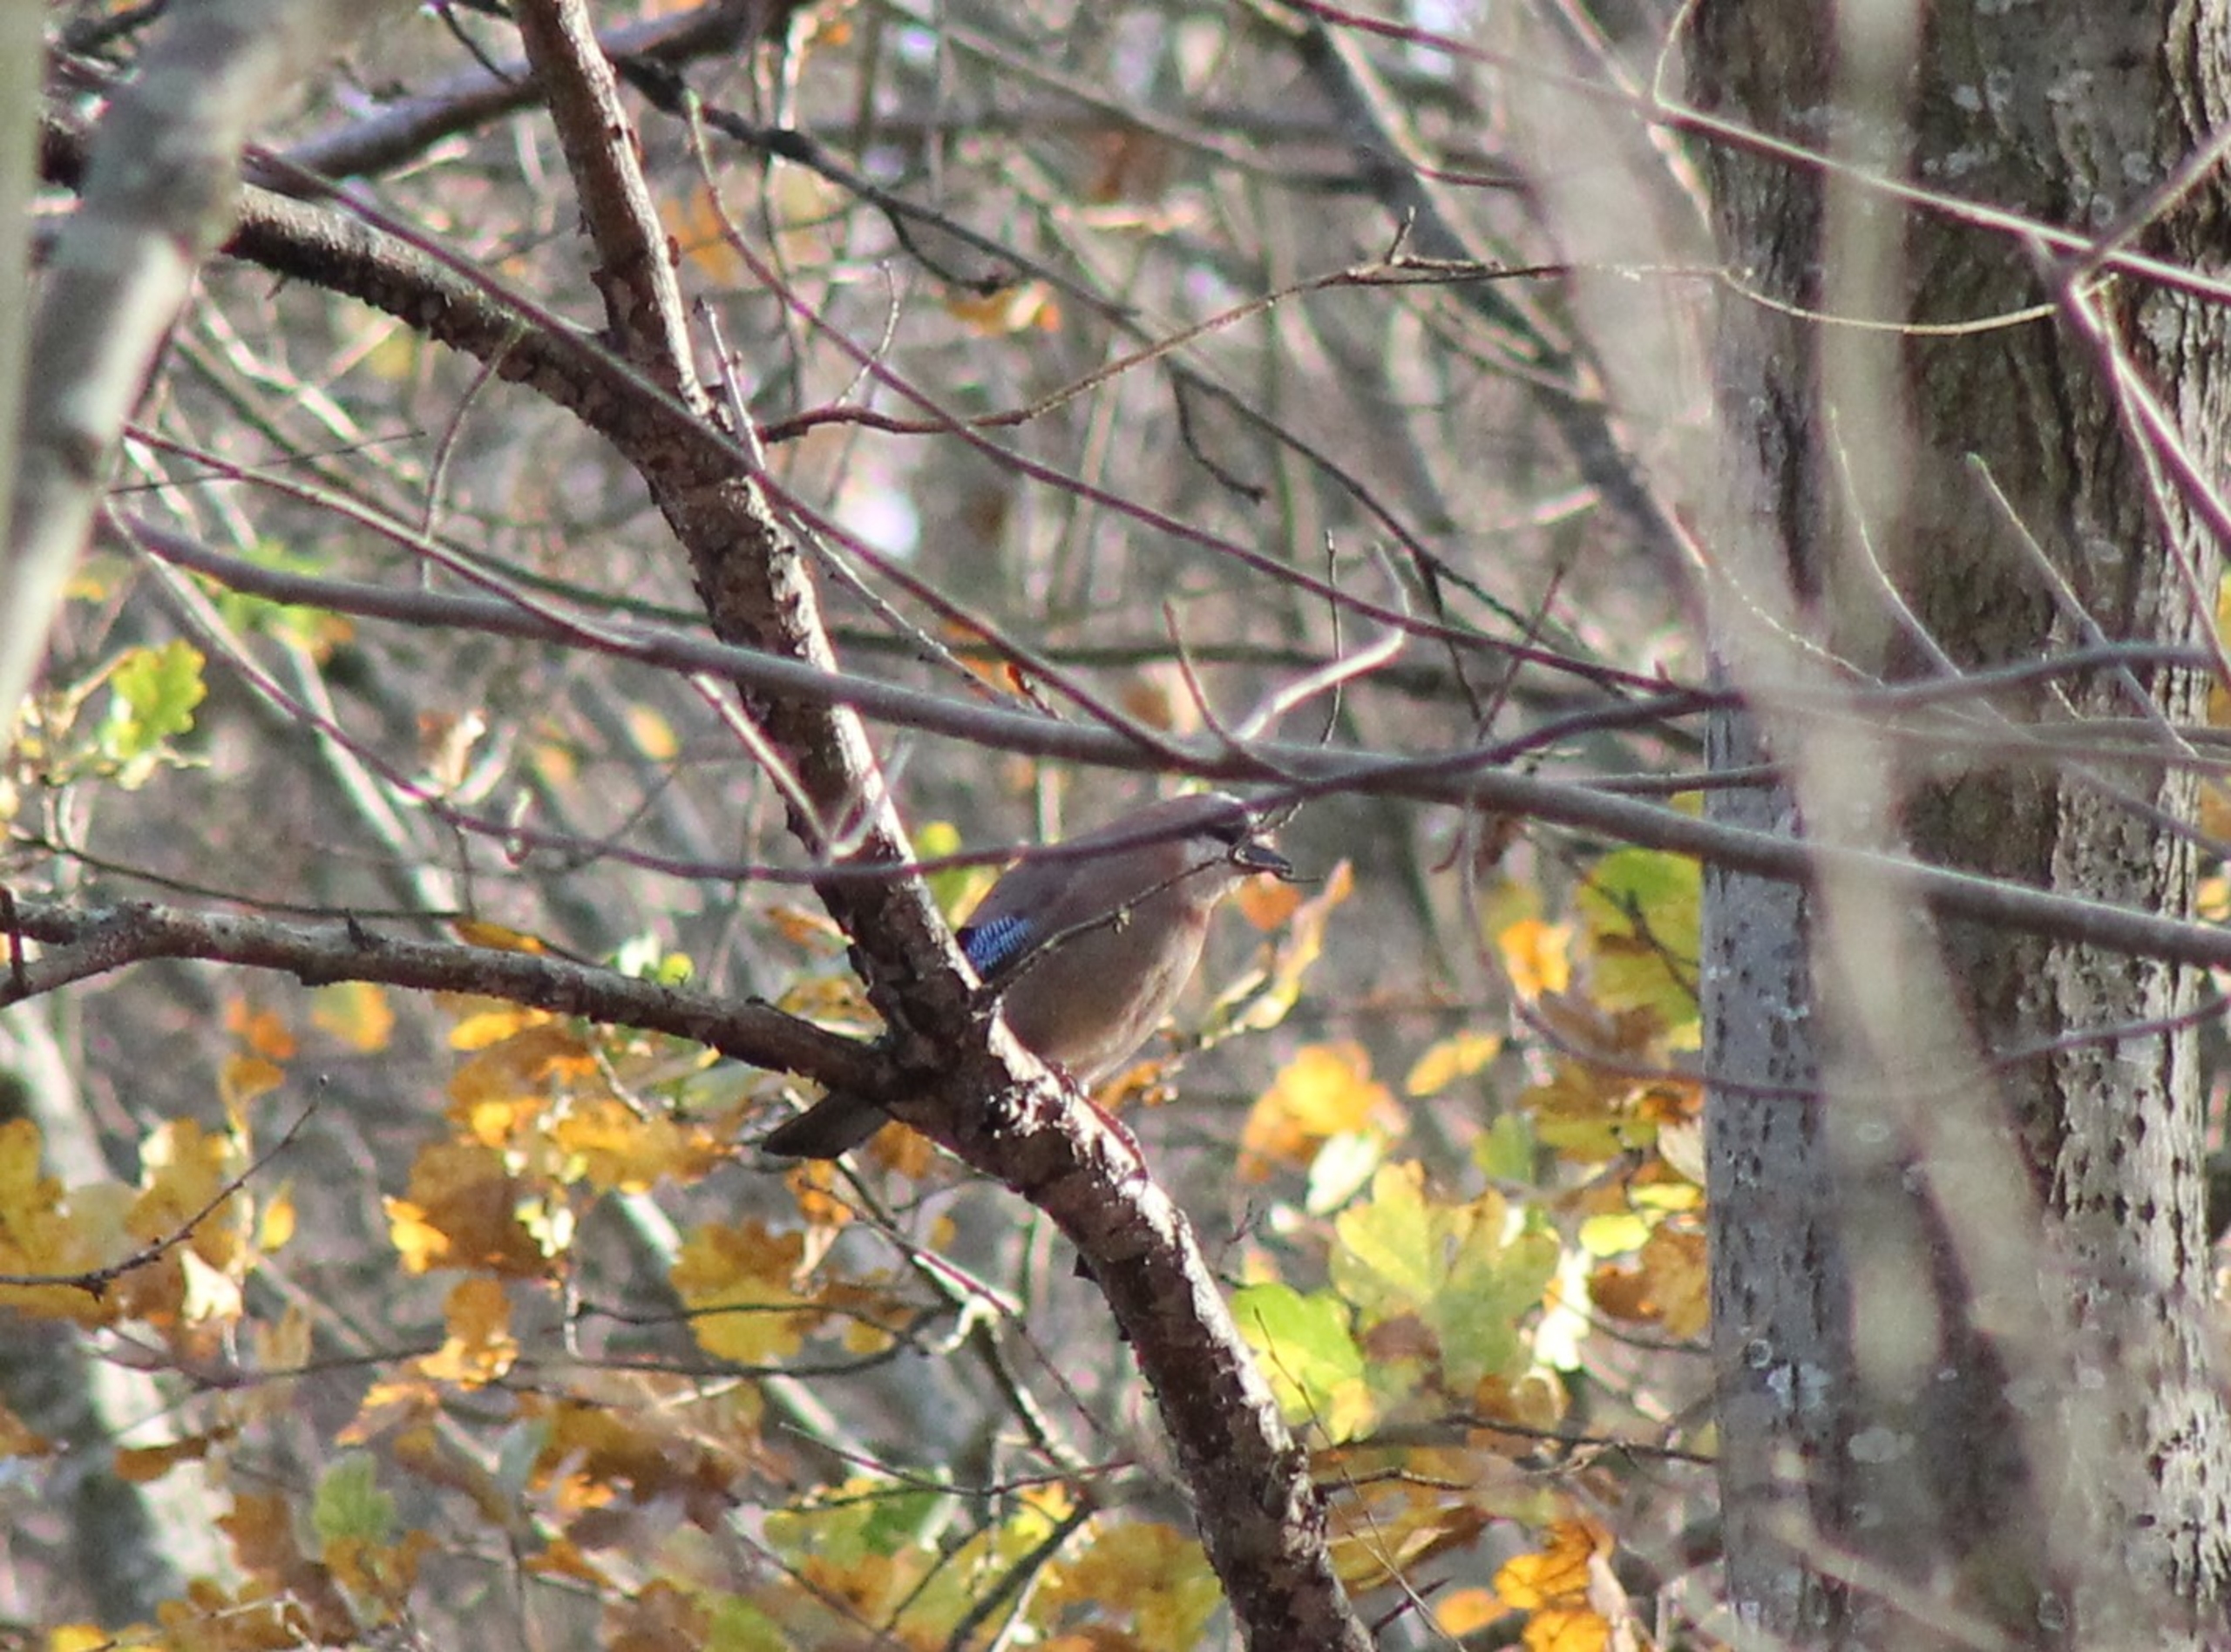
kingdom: Animalia
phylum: Chordata
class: Aves
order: Passeriformes
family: Corvidae
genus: Garrulus
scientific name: Garrulus glandarius
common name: Skovskade
